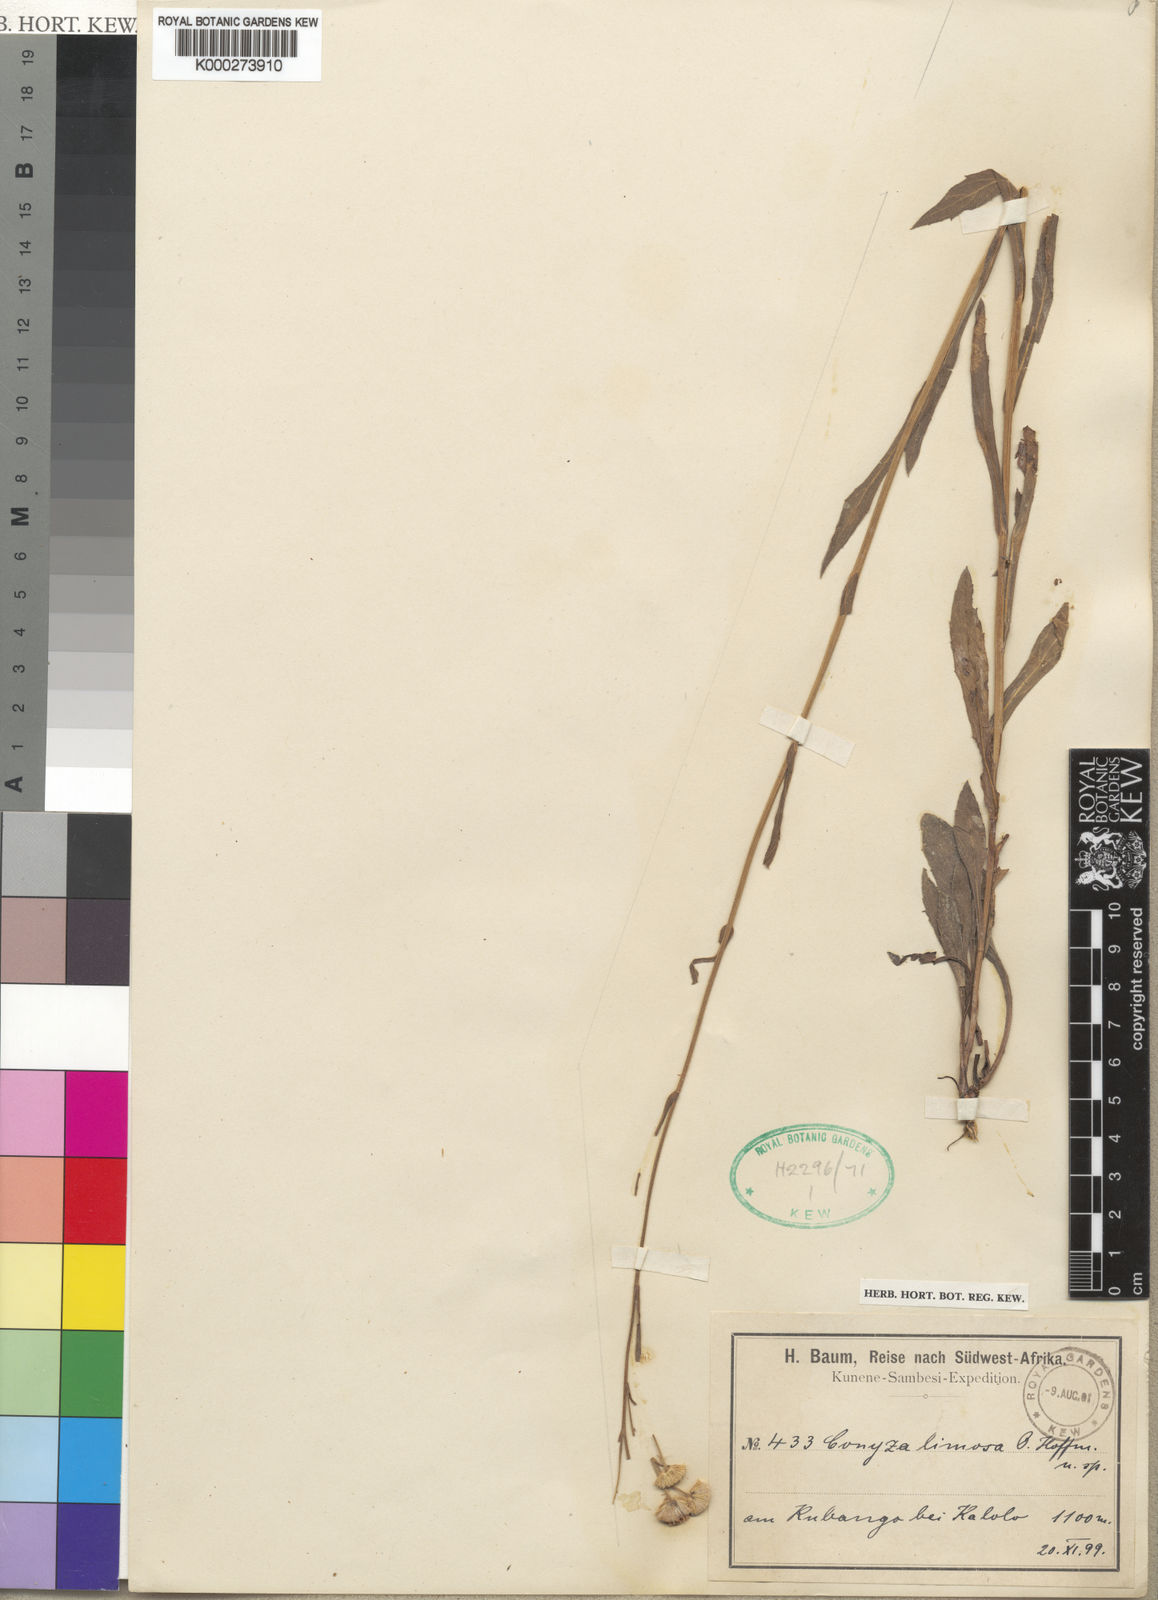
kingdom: Plantae
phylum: Tracheophyta
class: Magnoliopsida
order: Asterales
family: Asteraceae
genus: Conyza
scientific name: Conyza limosa
